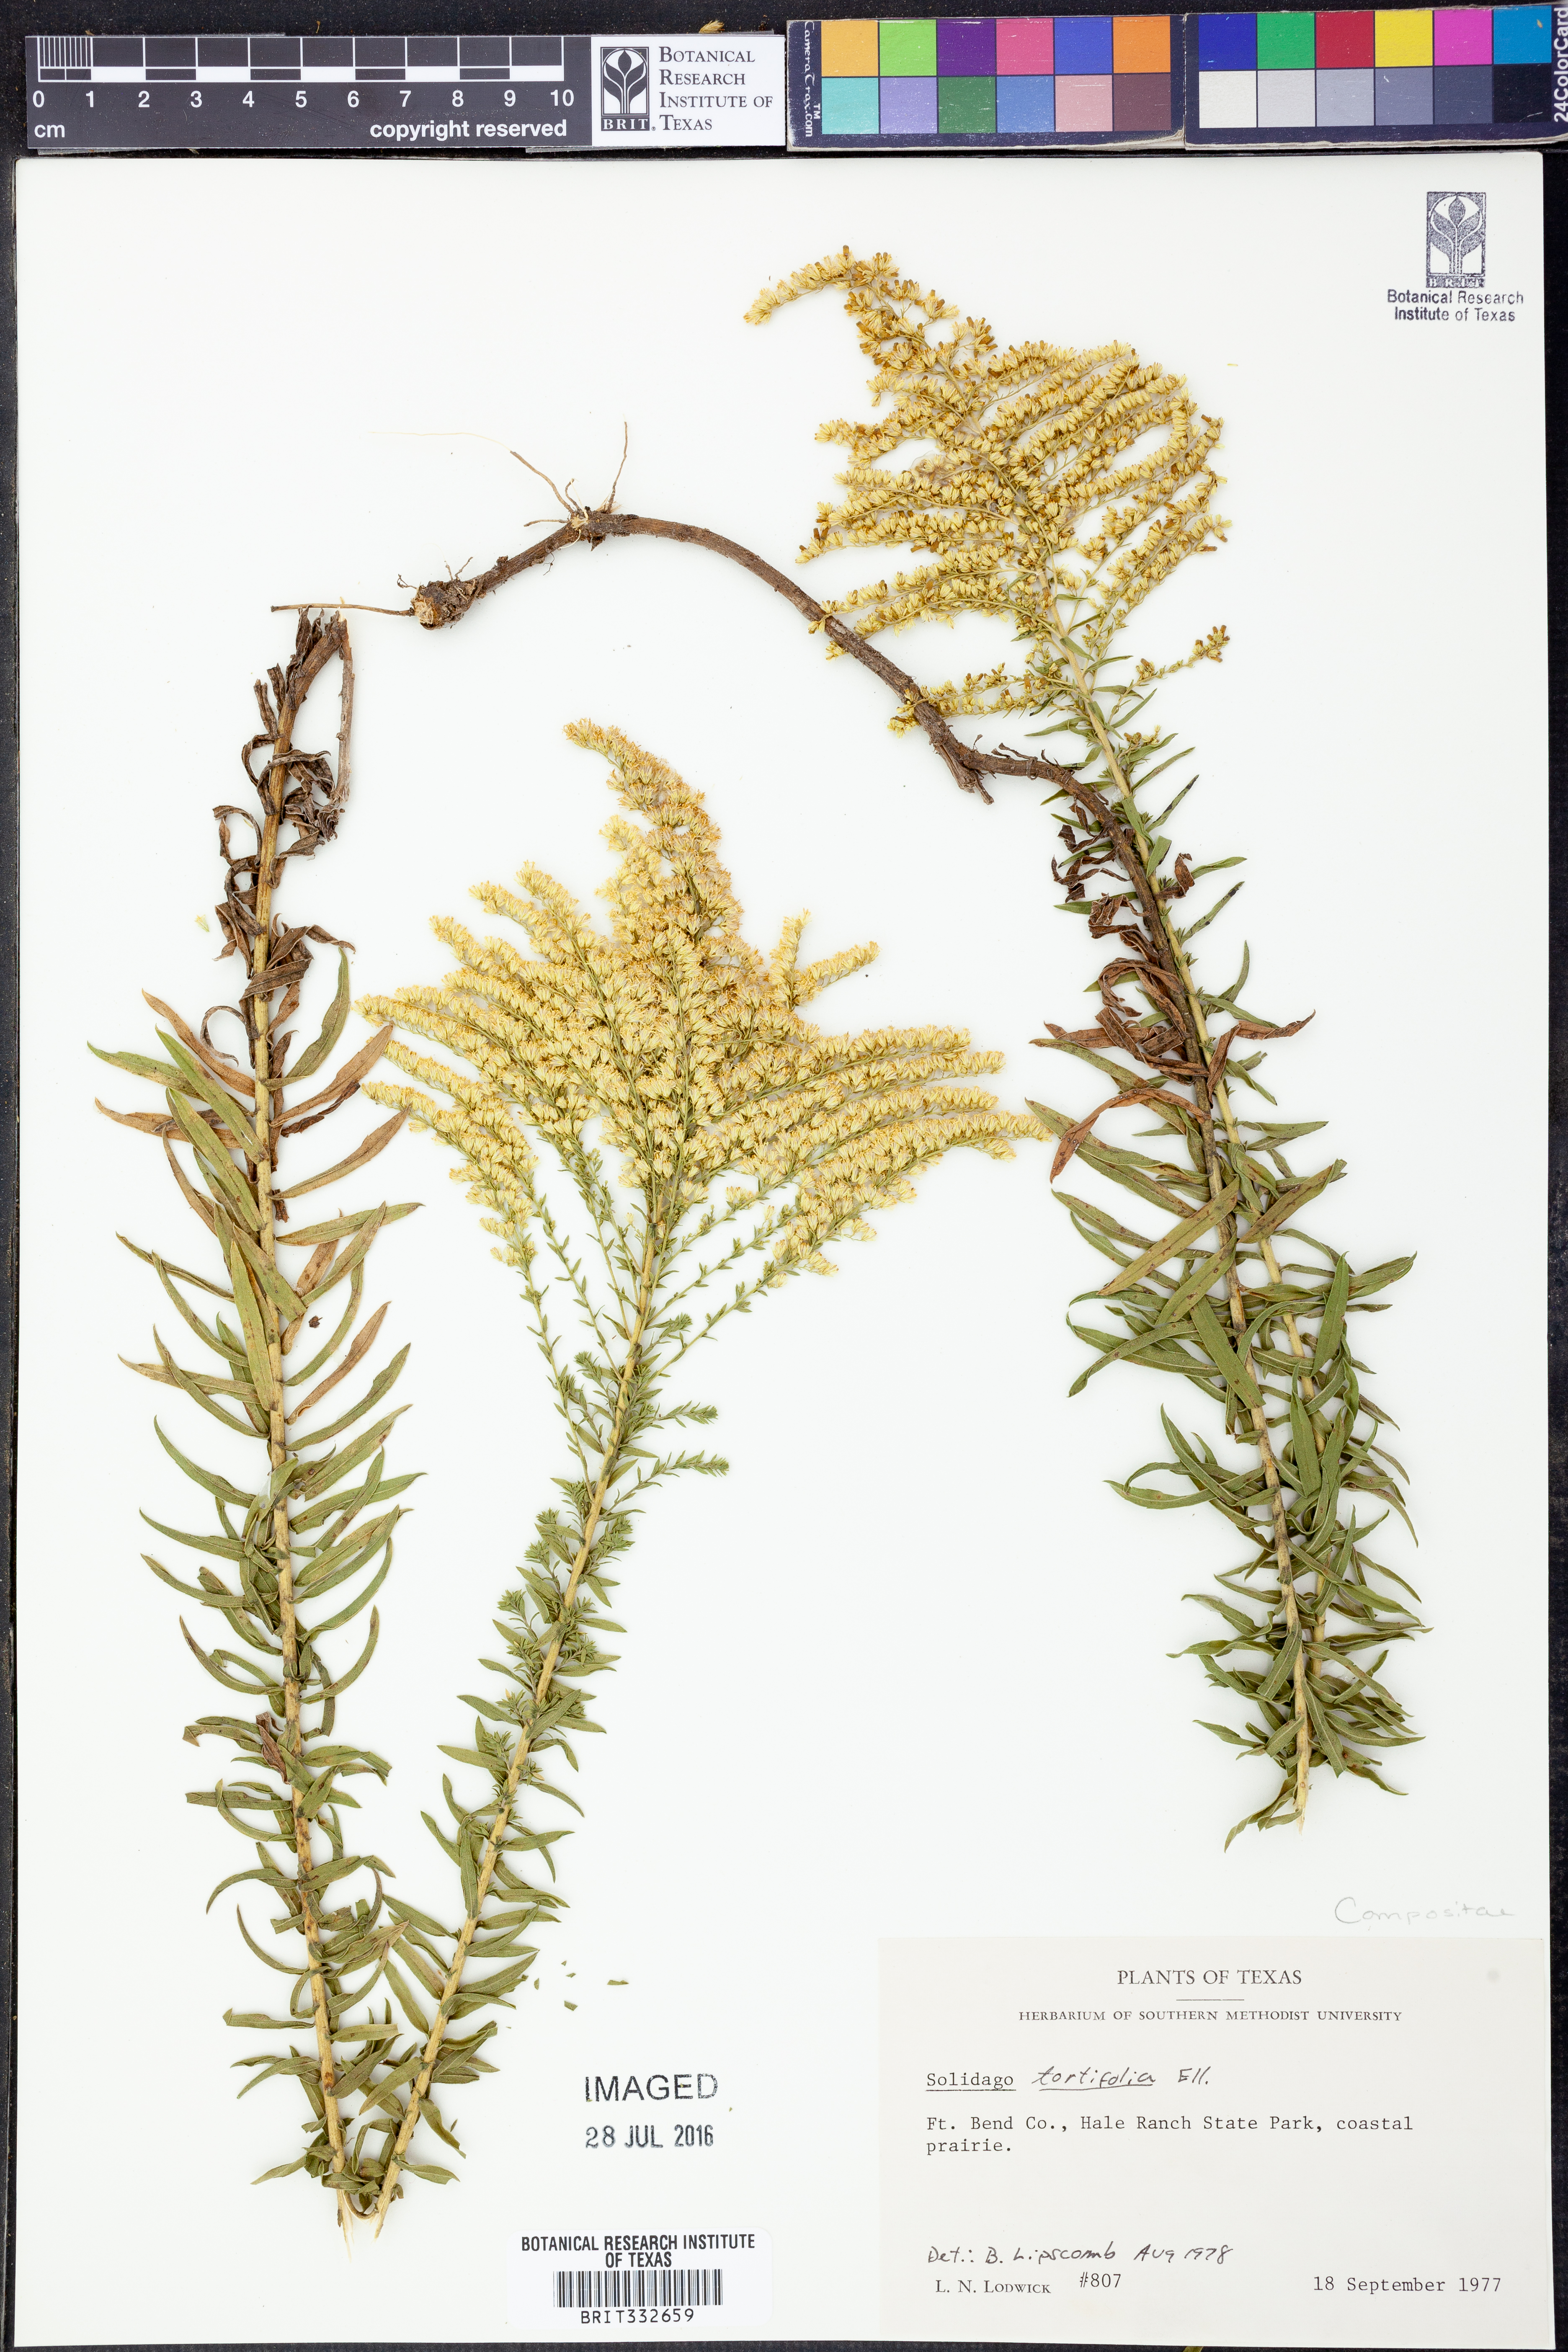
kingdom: Plantae
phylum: Tracheophyta
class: Magnoliopsida
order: Asterales
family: Asteraceae
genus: Solidago
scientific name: Solidago tortifolia
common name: Twisted-leaf goldenrod
